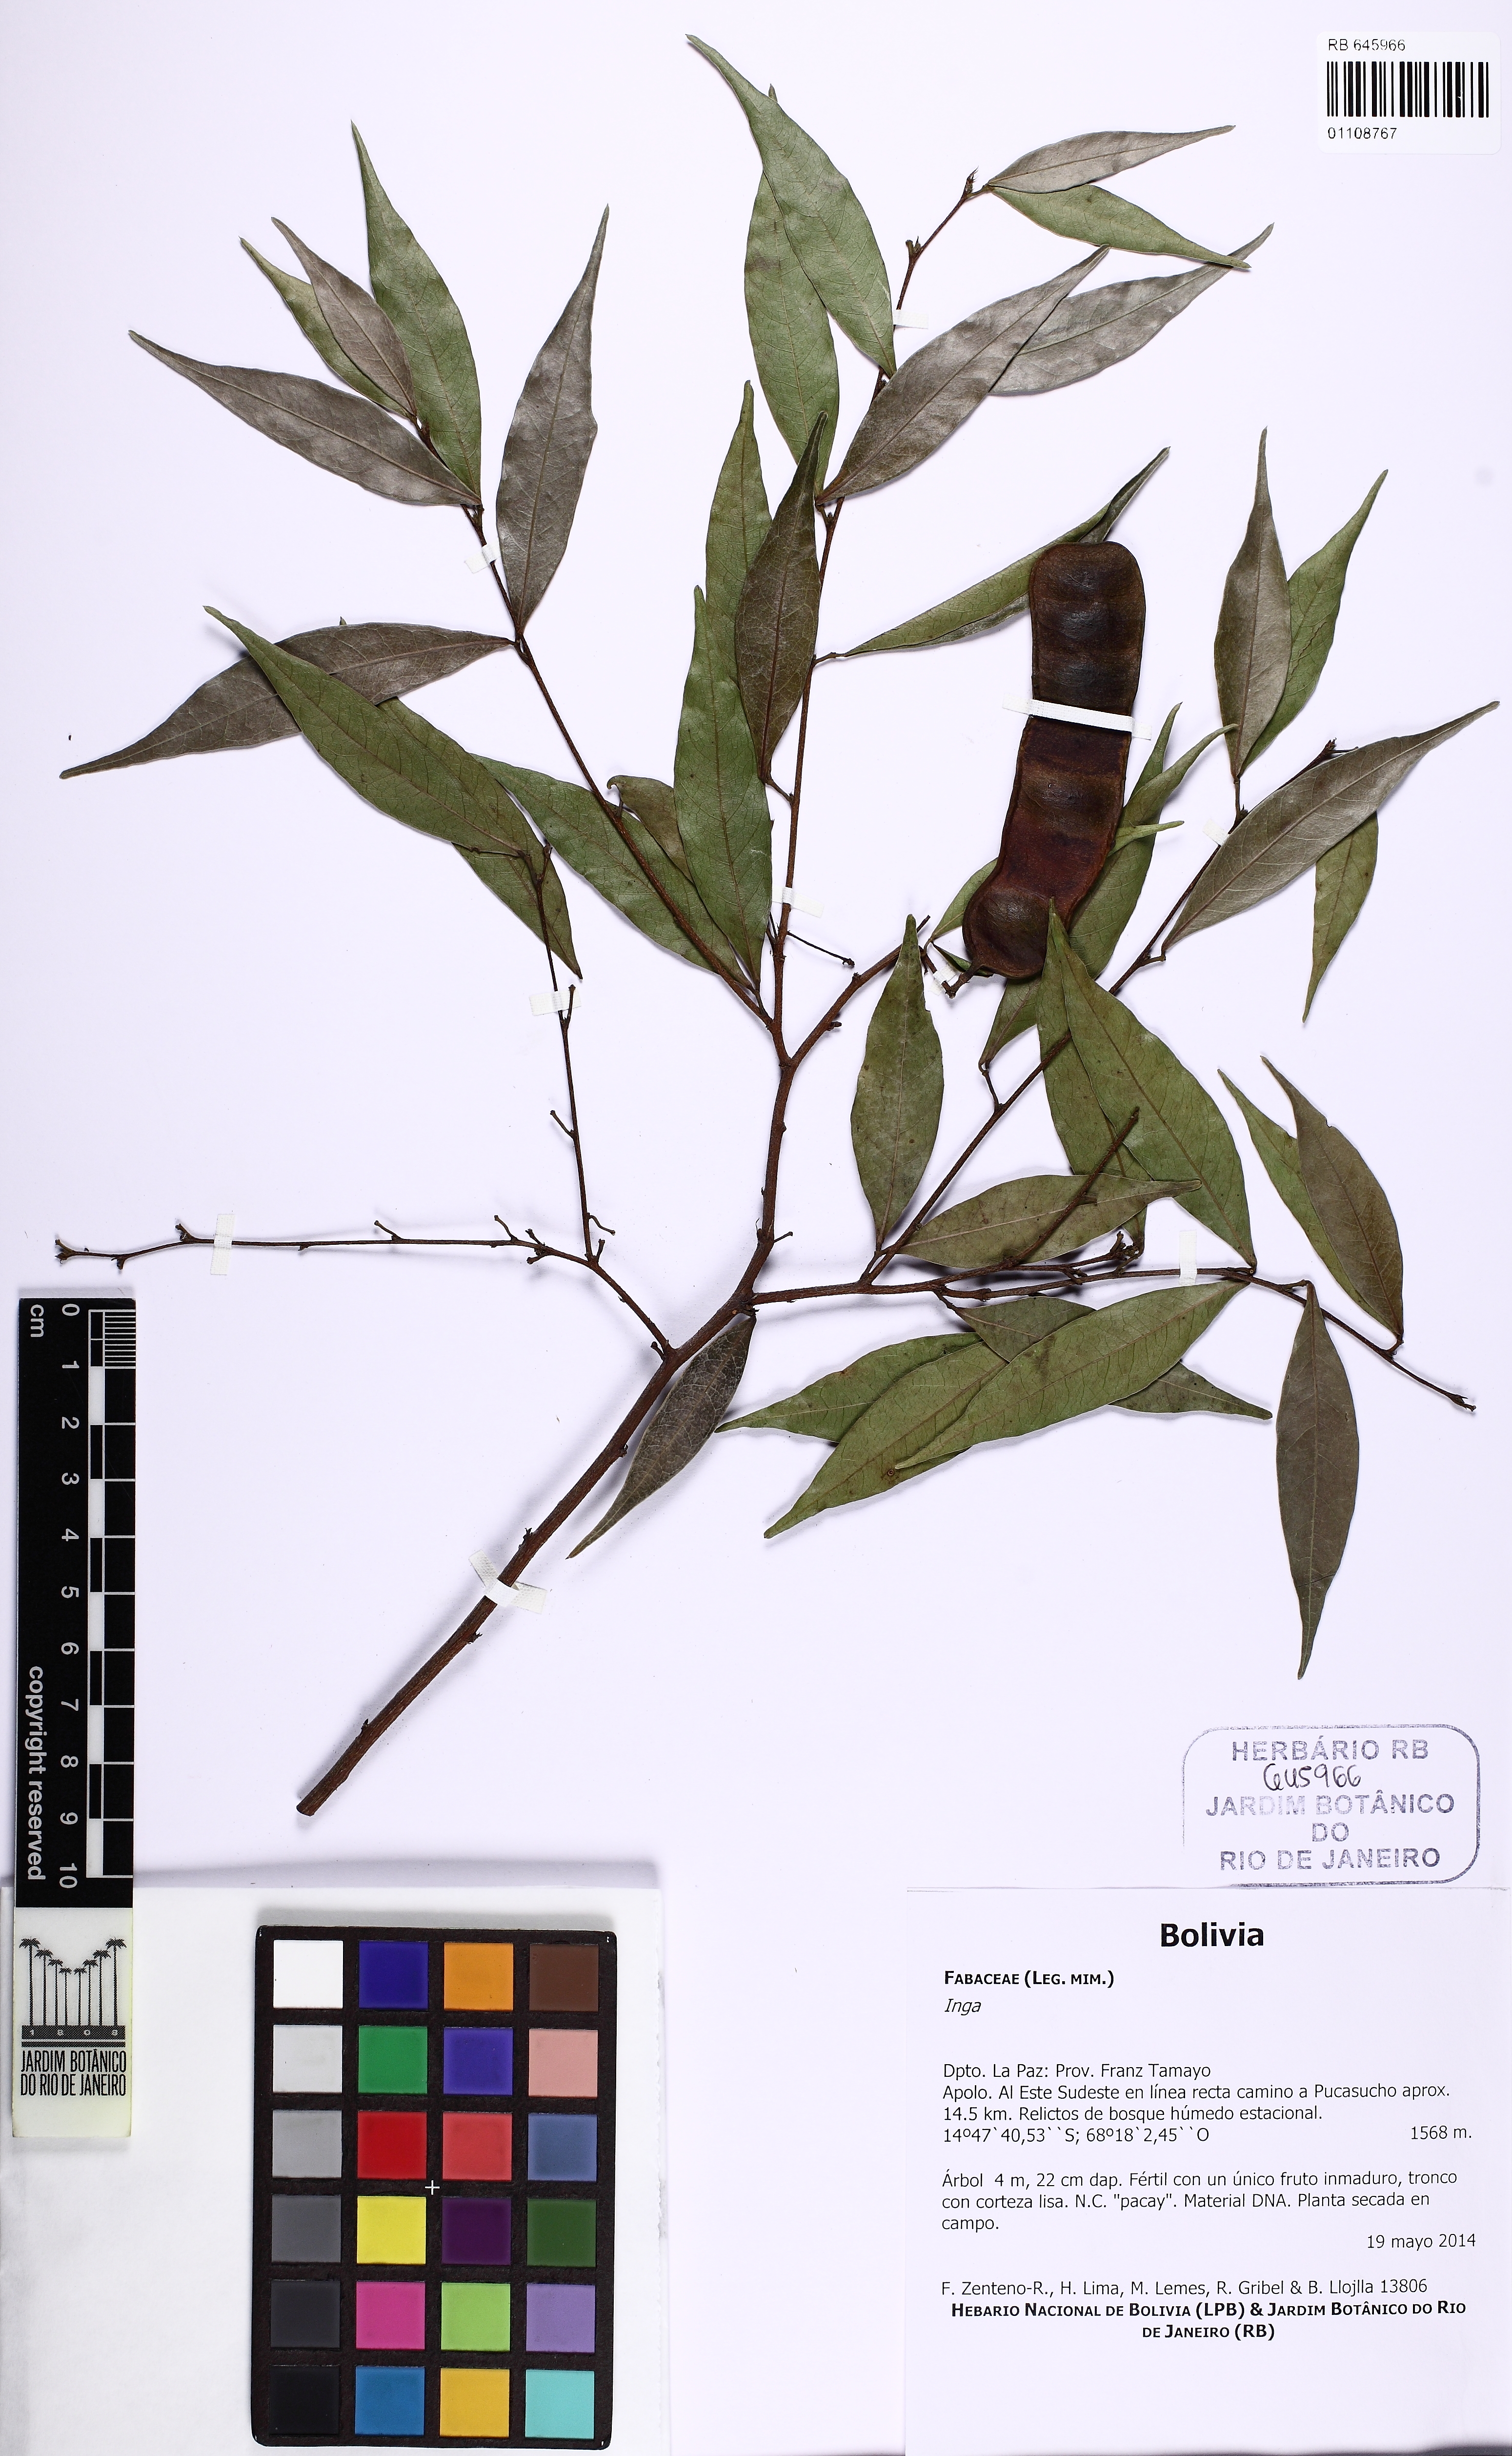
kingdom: Plantae
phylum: Tracheophyta
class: Magnoliopsida
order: Fabales
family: Fabaceae
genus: Inga
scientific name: Inga
